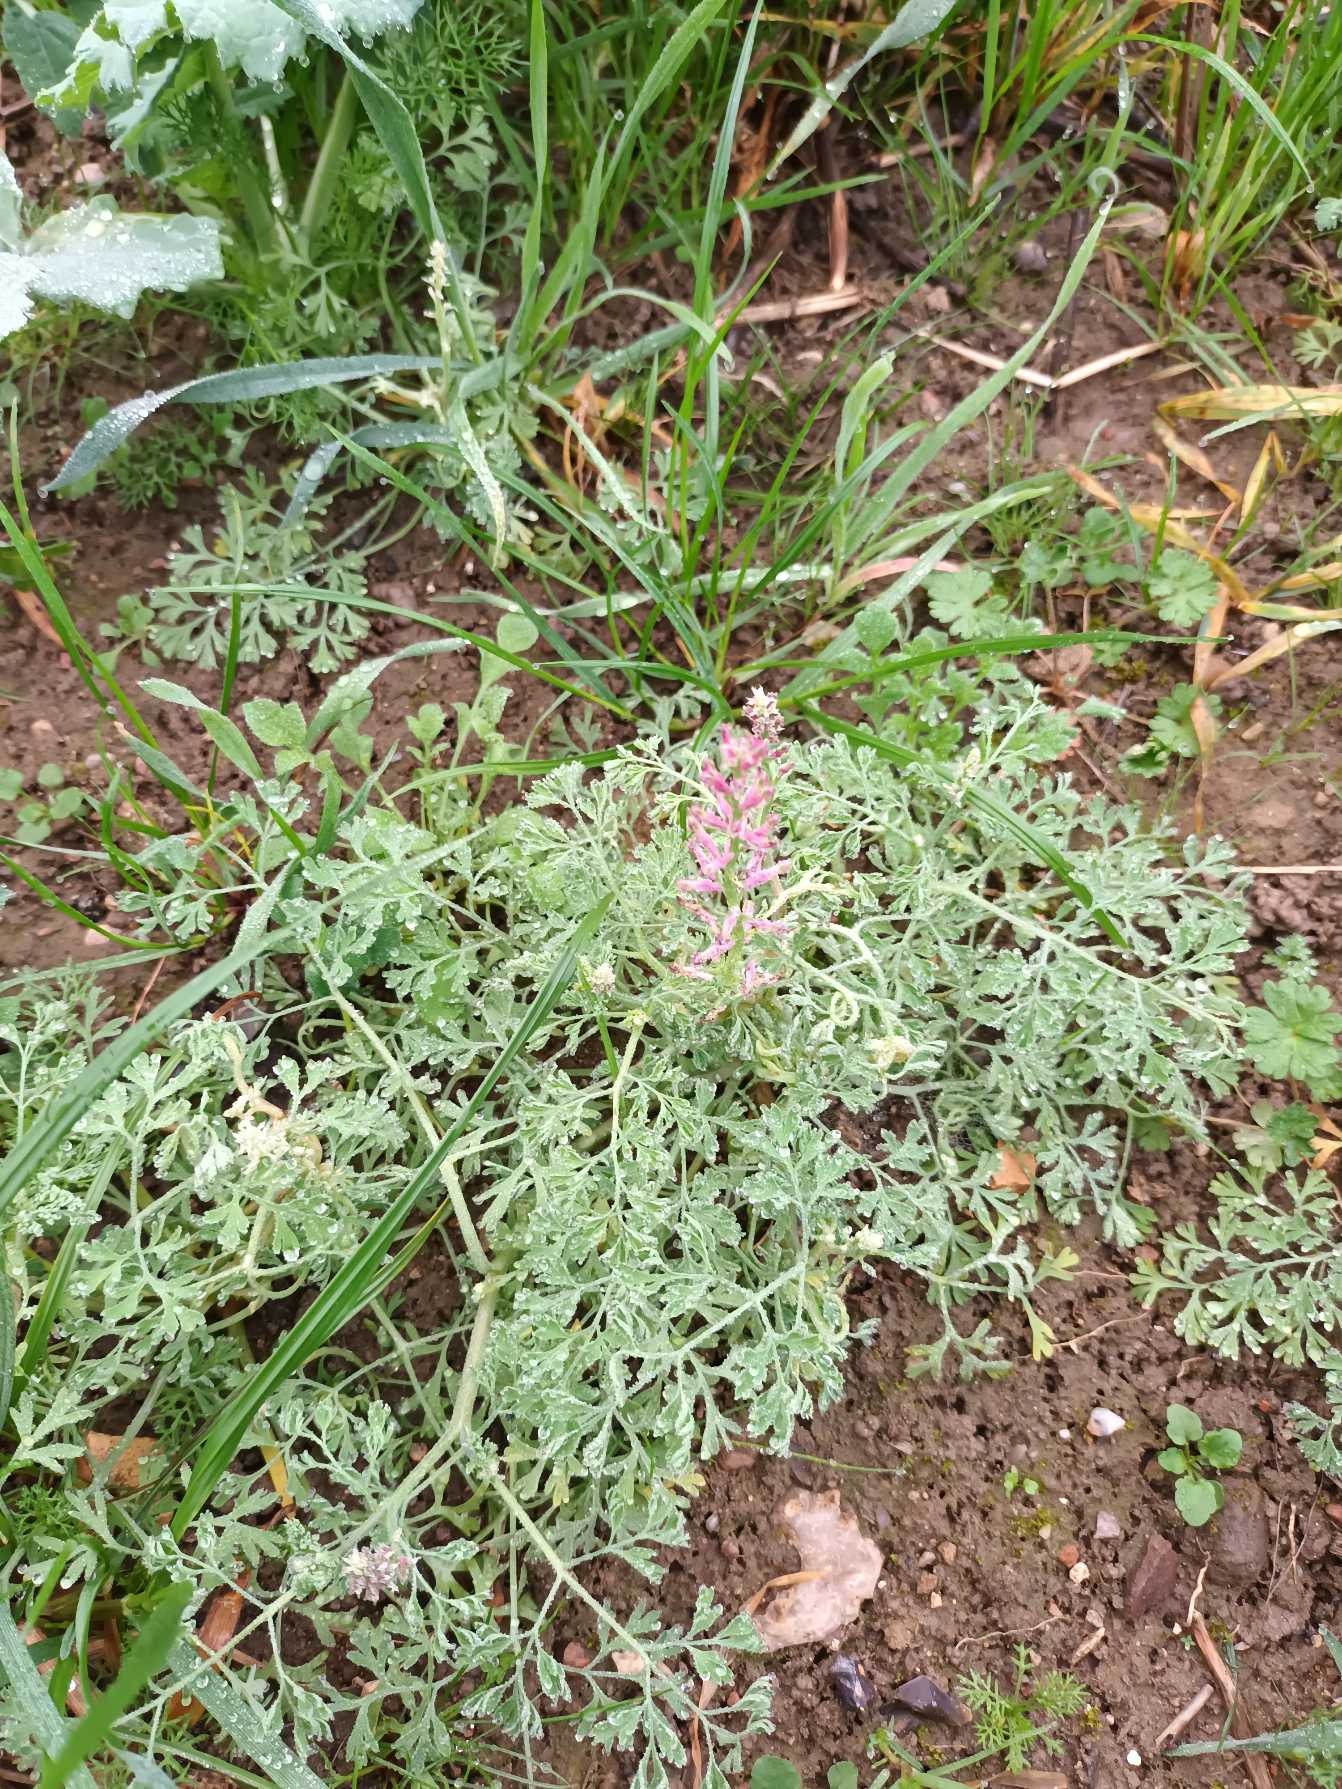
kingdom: Plantae
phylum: Tracheophyta
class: Magnoliopsida
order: Ranunculales
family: Papaveraceae
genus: Fumaria
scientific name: Fumaria officinalis
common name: Læge-jordrøg
